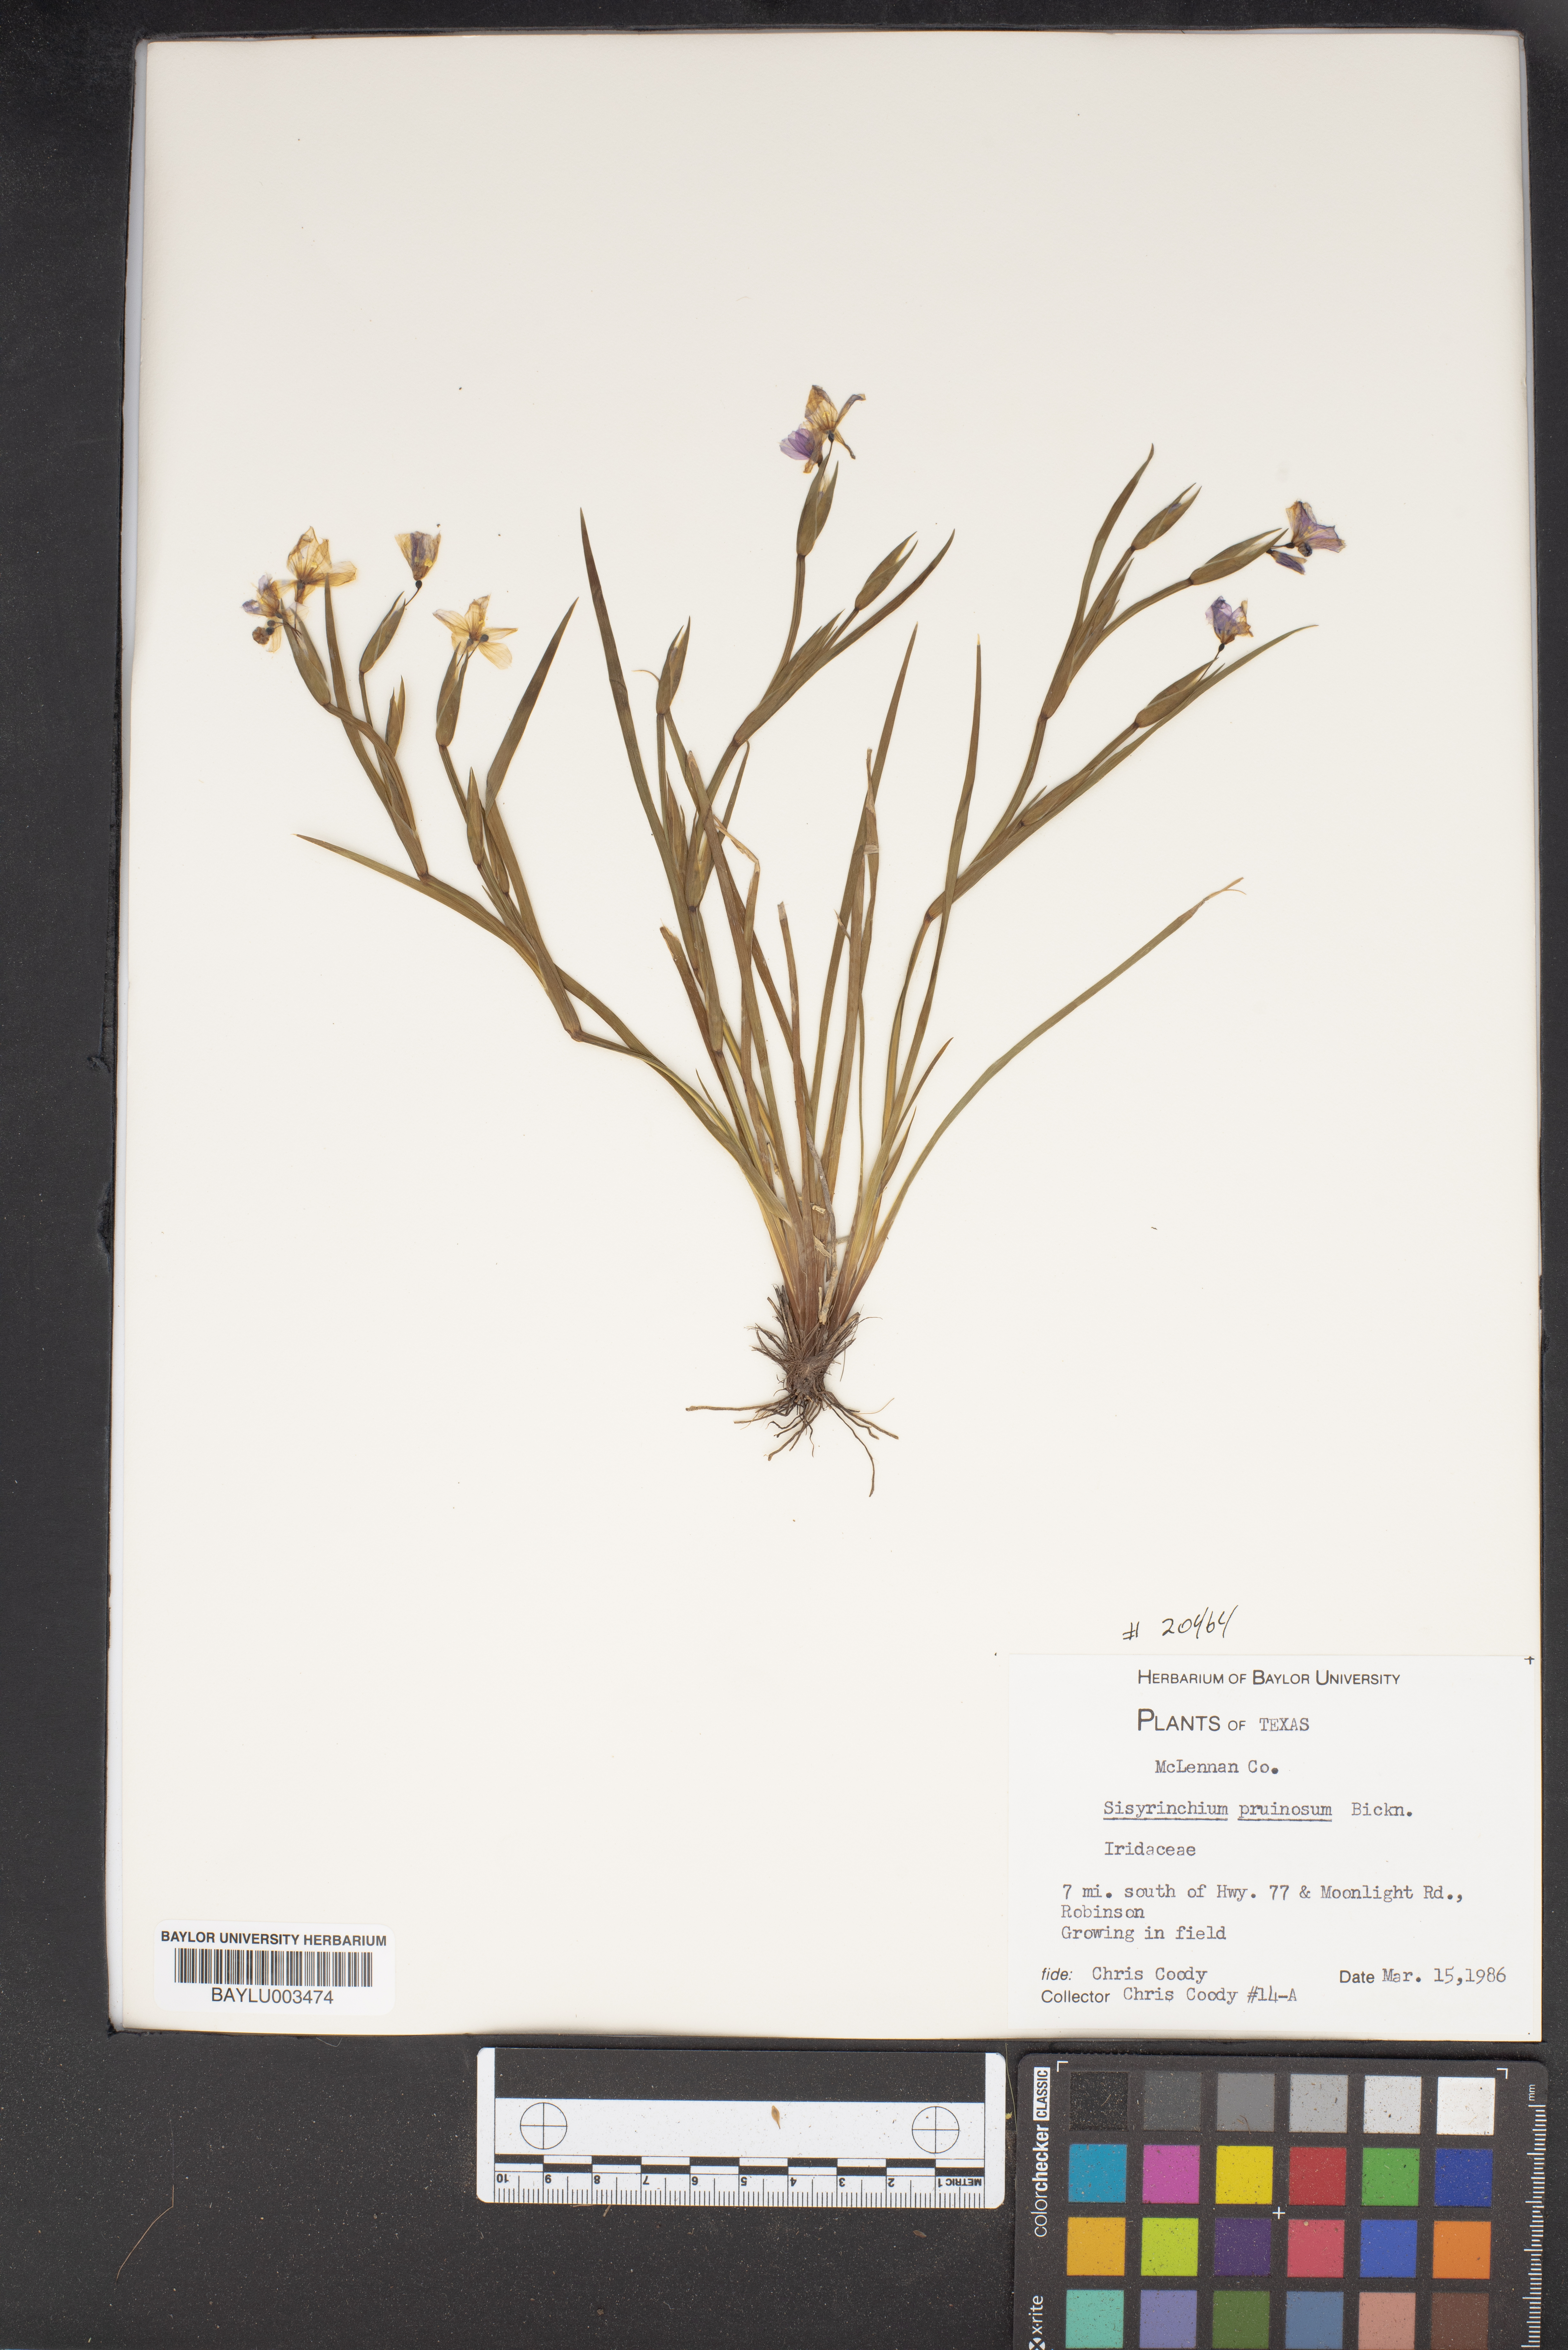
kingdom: Plantae
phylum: Tracheophyta
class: Liliopsida
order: Asparagales
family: Iridaceae
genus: Sisyrinchium
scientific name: Sisyrinchium pruinosum
